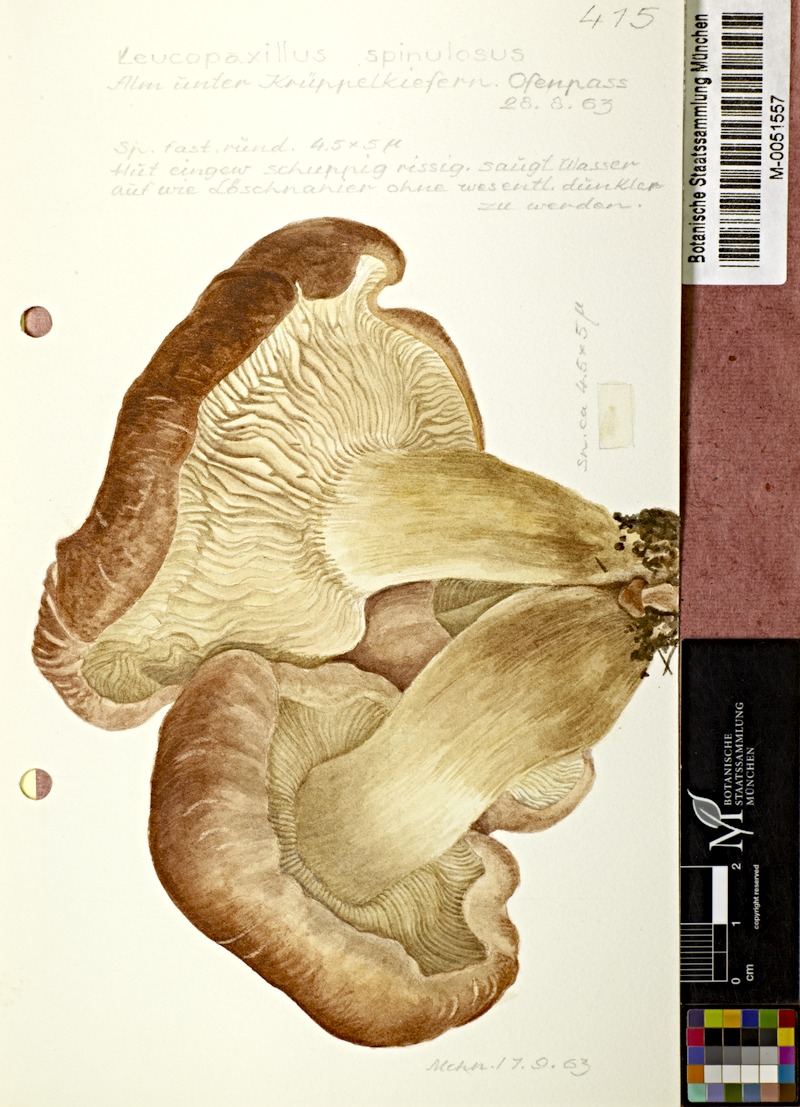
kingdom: Fungi
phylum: Basidiomycota
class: Agaricomycetes
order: Agaricales
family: Pseudoclitocybaceae
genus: Pogonoloma
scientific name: Pogonoloma spinulosum
